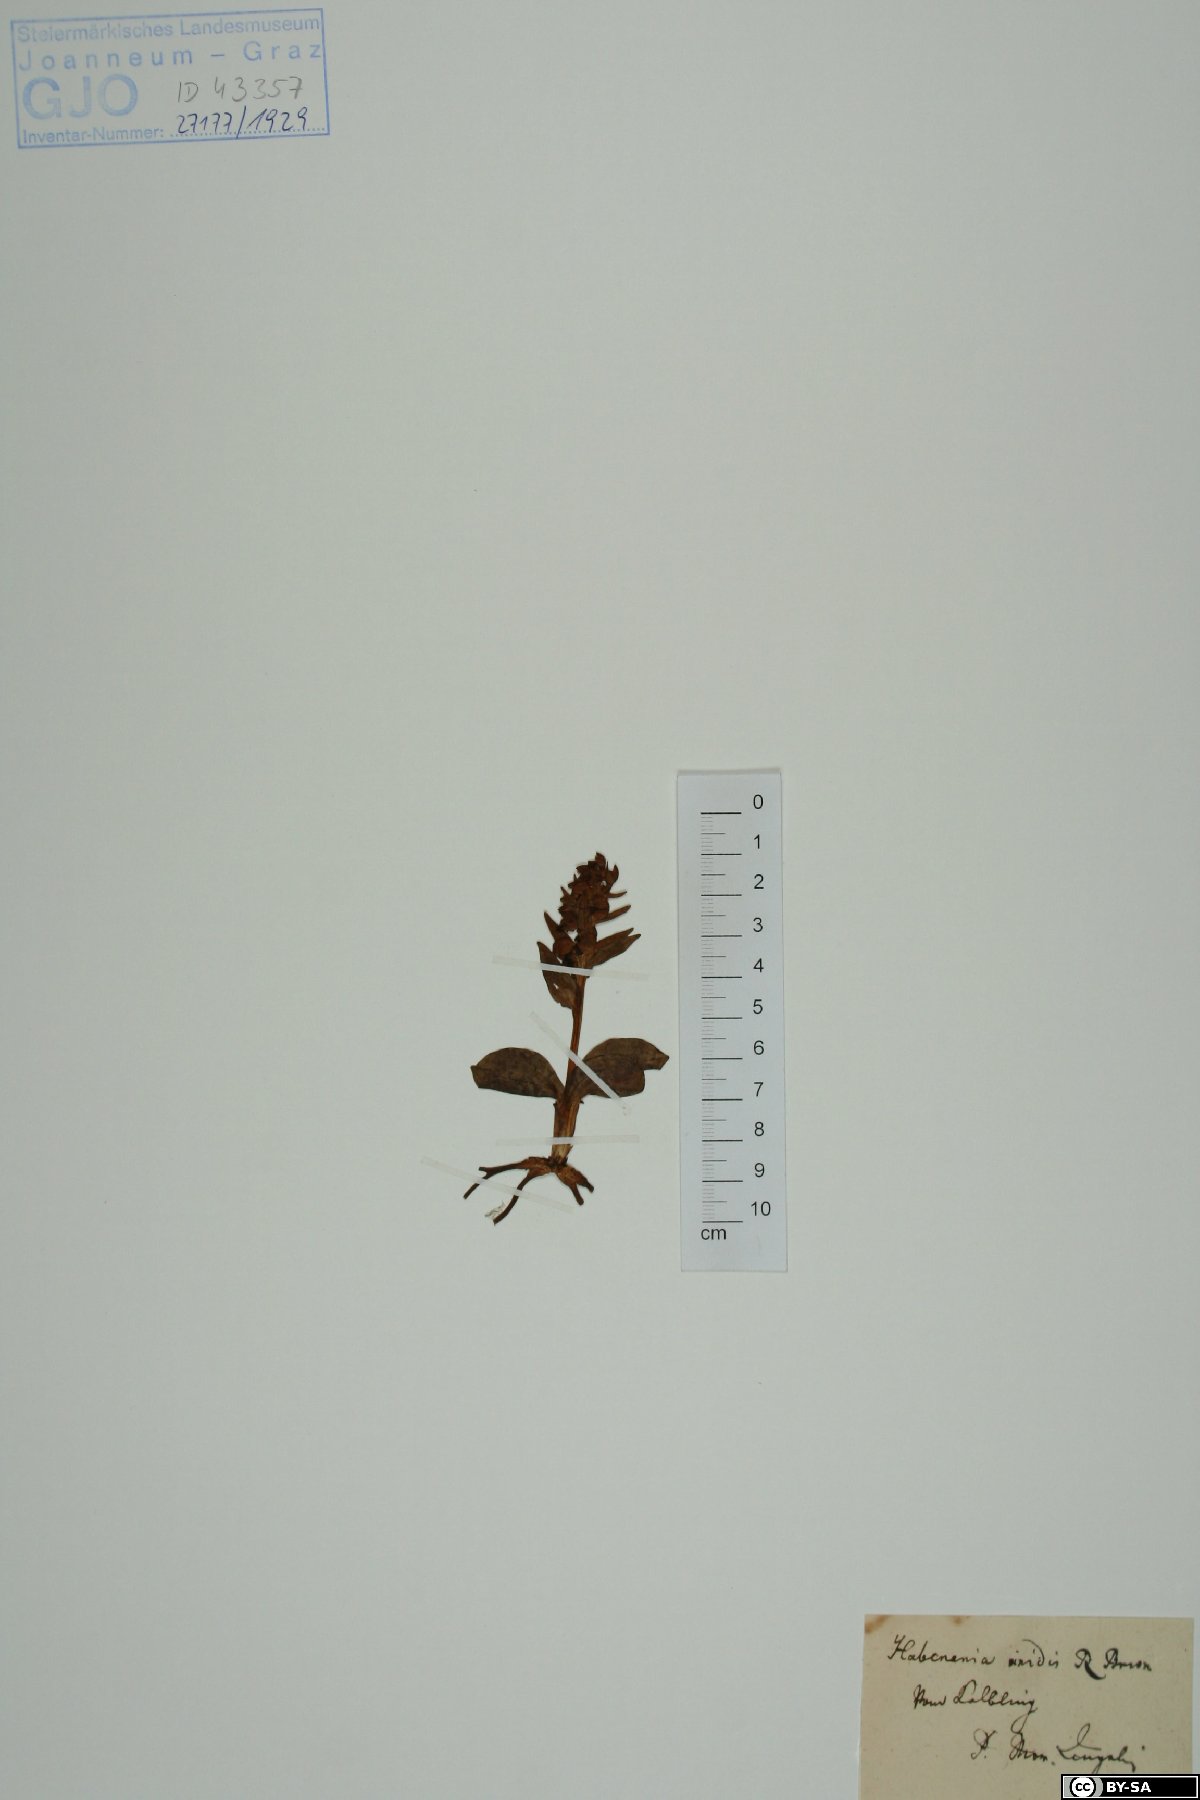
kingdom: Plantae
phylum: Tracheophyta
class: Liliopsida
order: Asparagales
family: Orchidaceae
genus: Dactylorhiza
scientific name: Dactylorhiza viridis
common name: Longbract frog orchid
